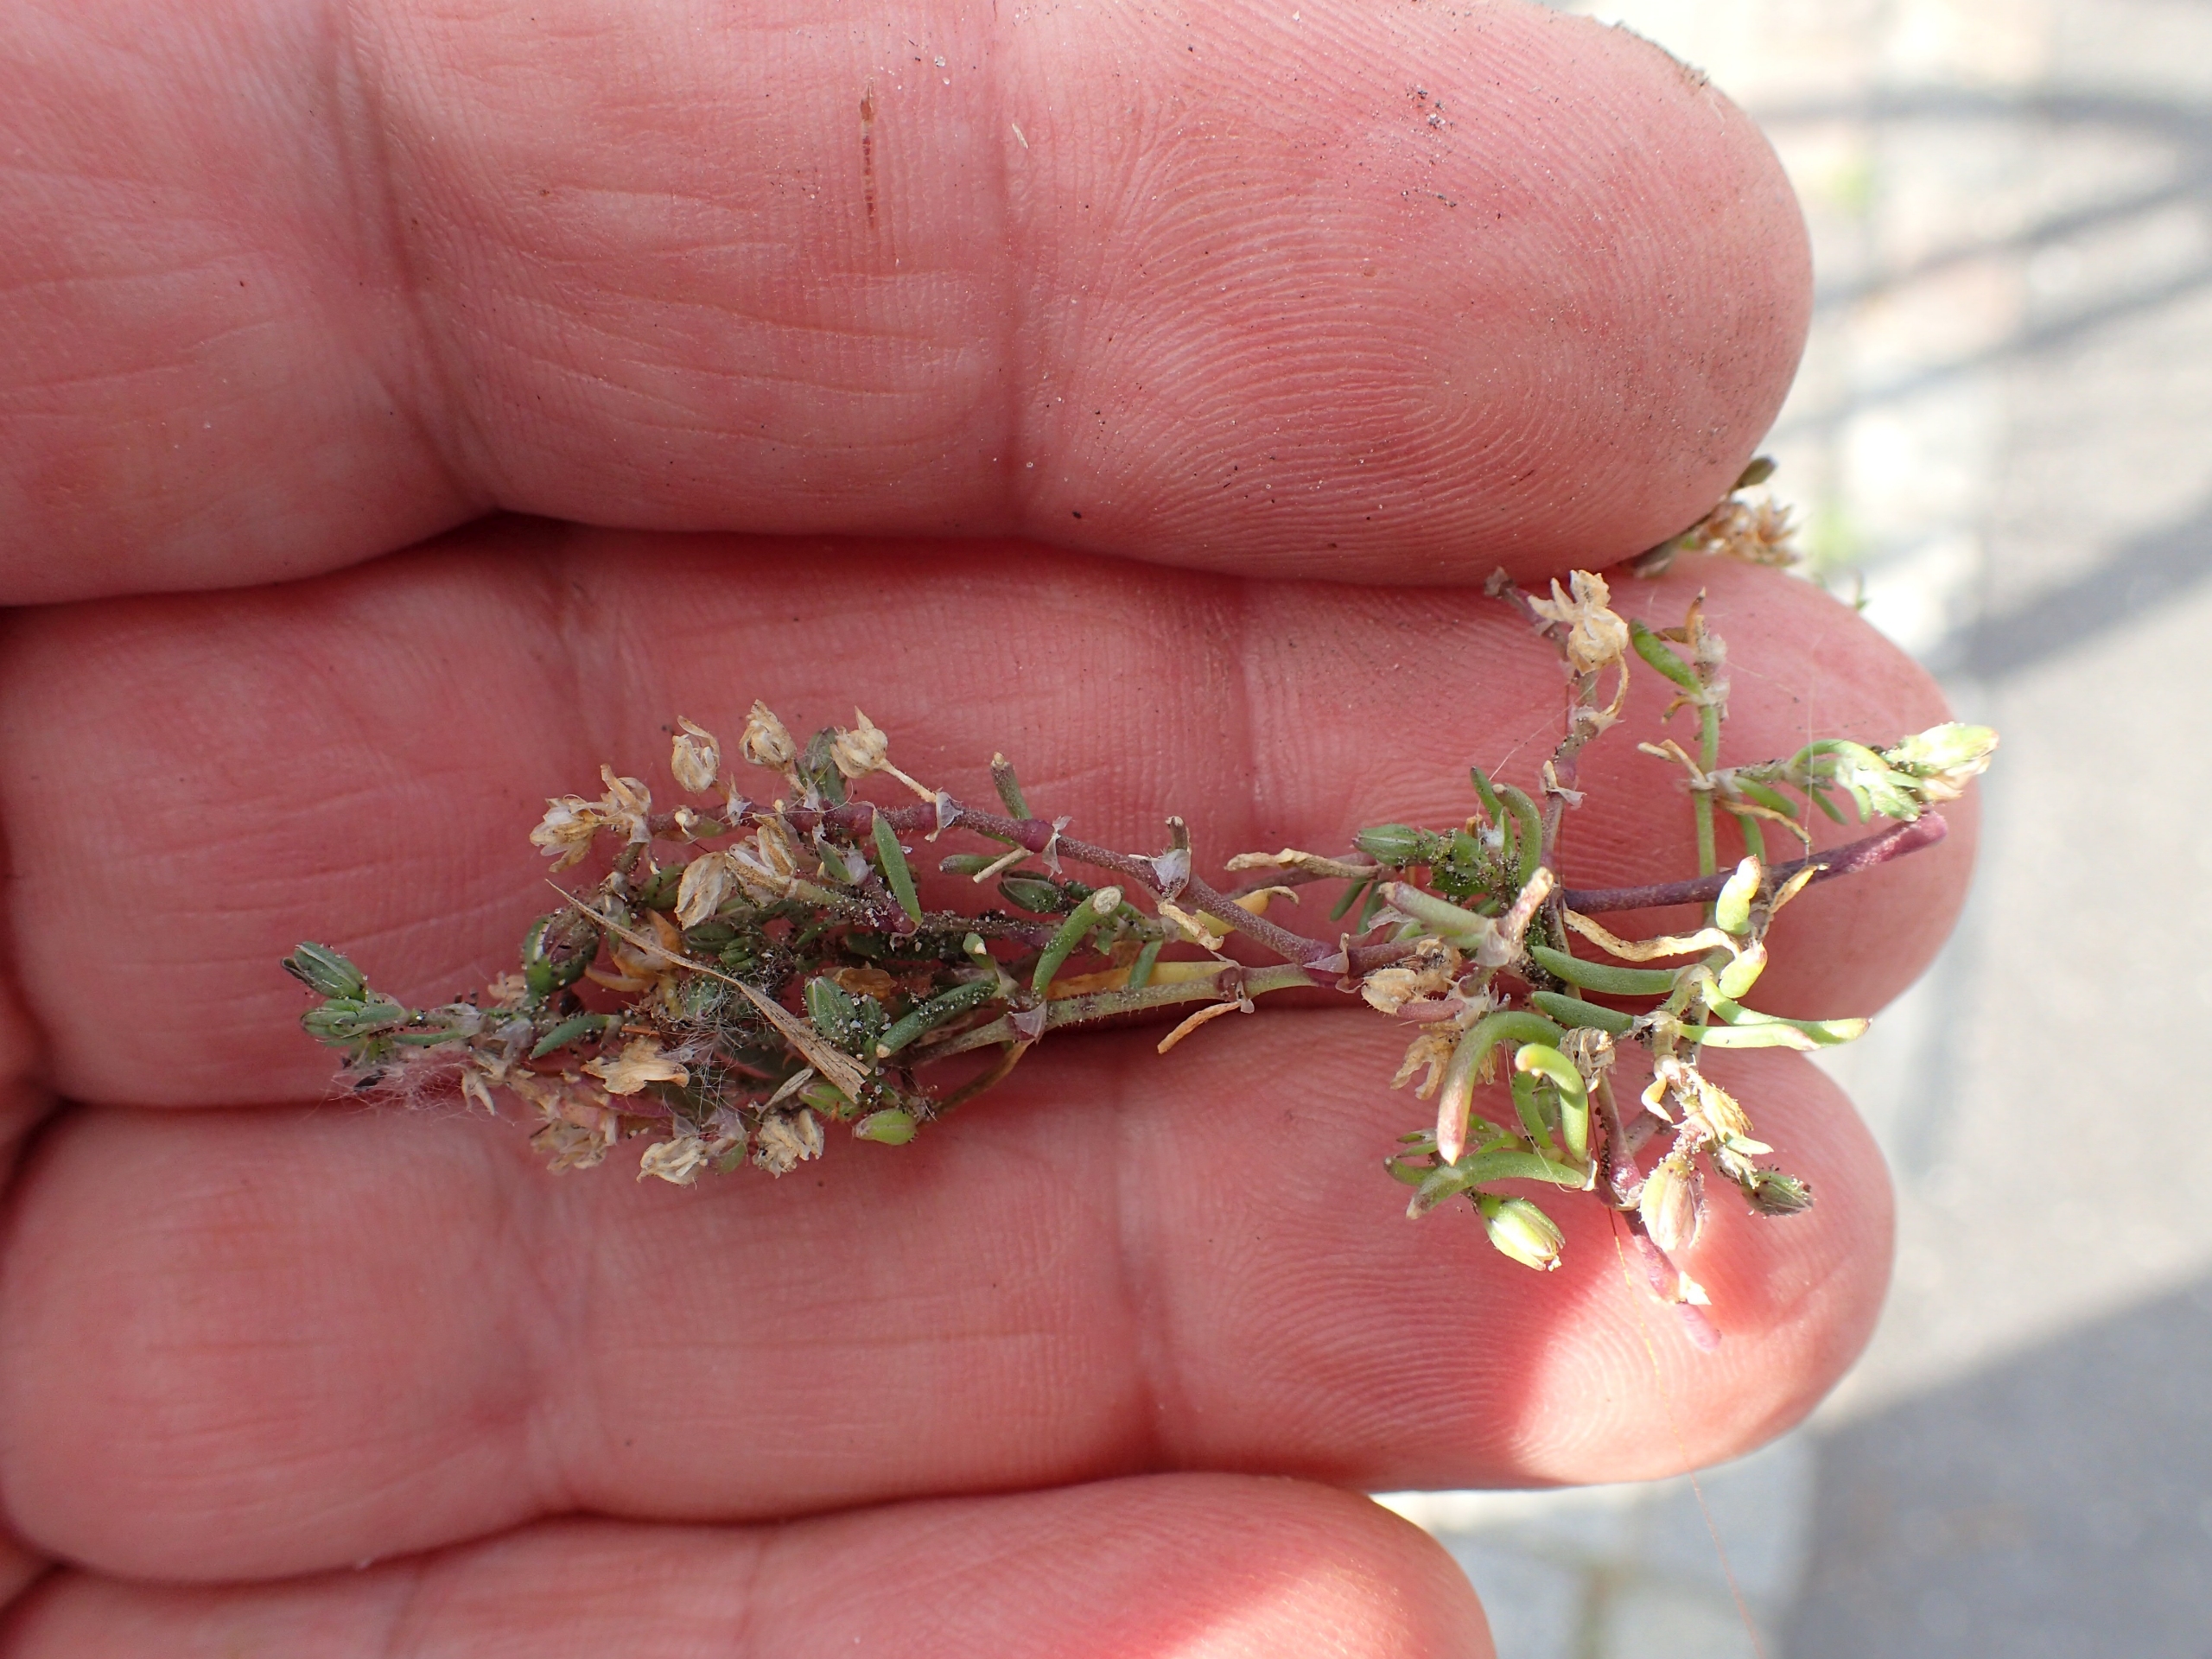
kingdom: Plantae
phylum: Tracheophyta
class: Magnoliopsida
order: Caryophyllales
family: Caryophyllaceae
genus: Spergularia
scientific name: Spergularia marina
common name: Kødet hindeknæ
